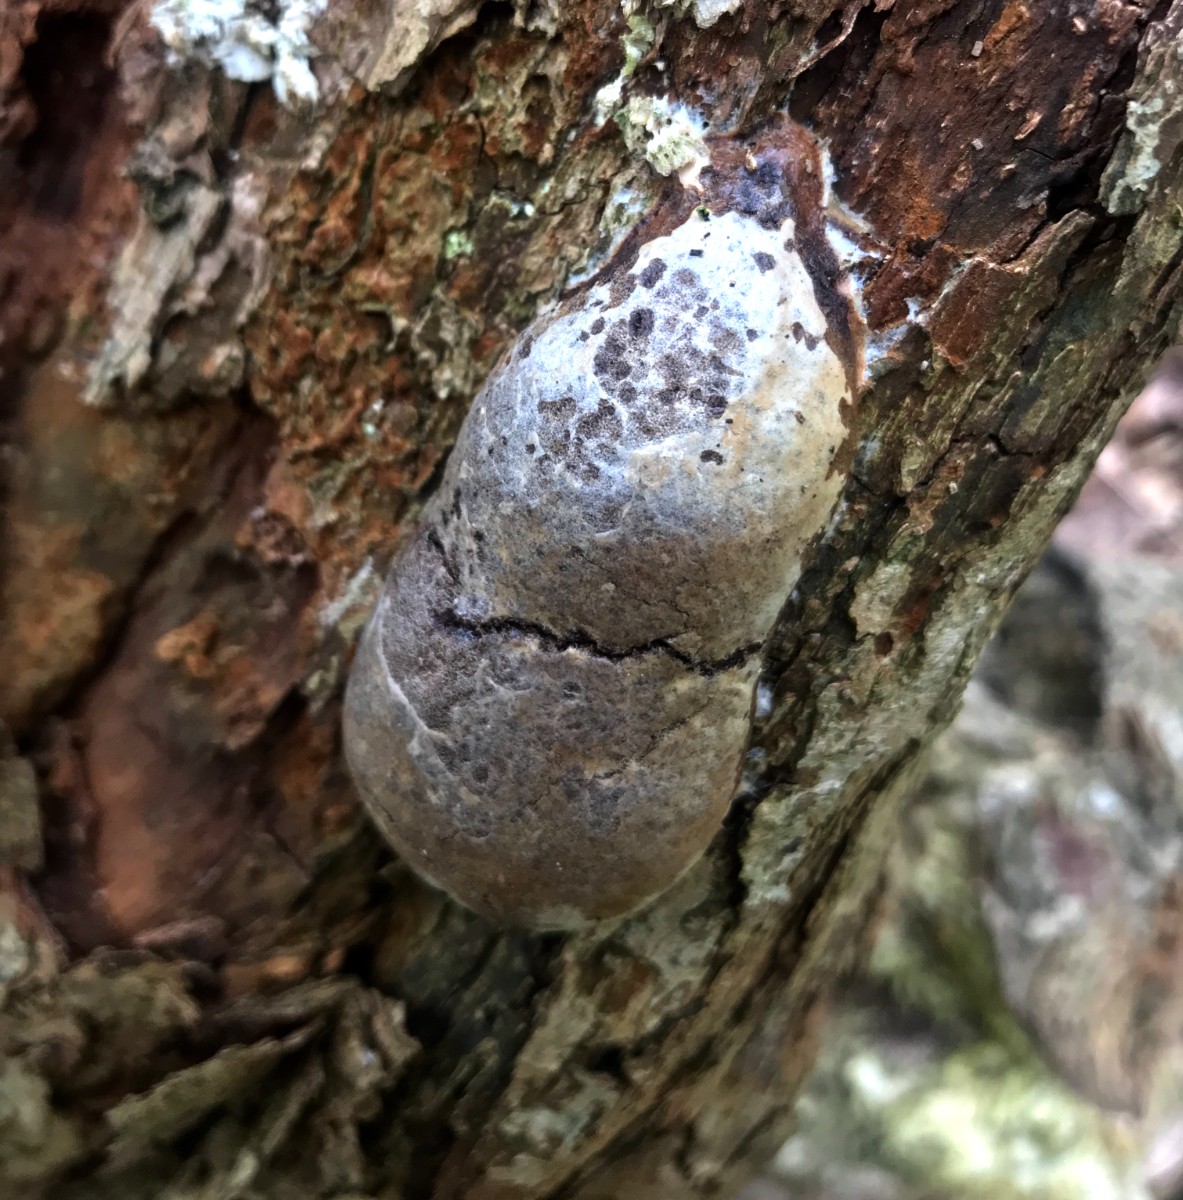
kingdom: Protozoa
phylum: Mycetozoa
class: Myxomycetes
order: Cribrariales
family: Tubiferaceae
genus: Reticularia
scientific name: Reticularia lycoperdon
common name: skinnende støvpude
